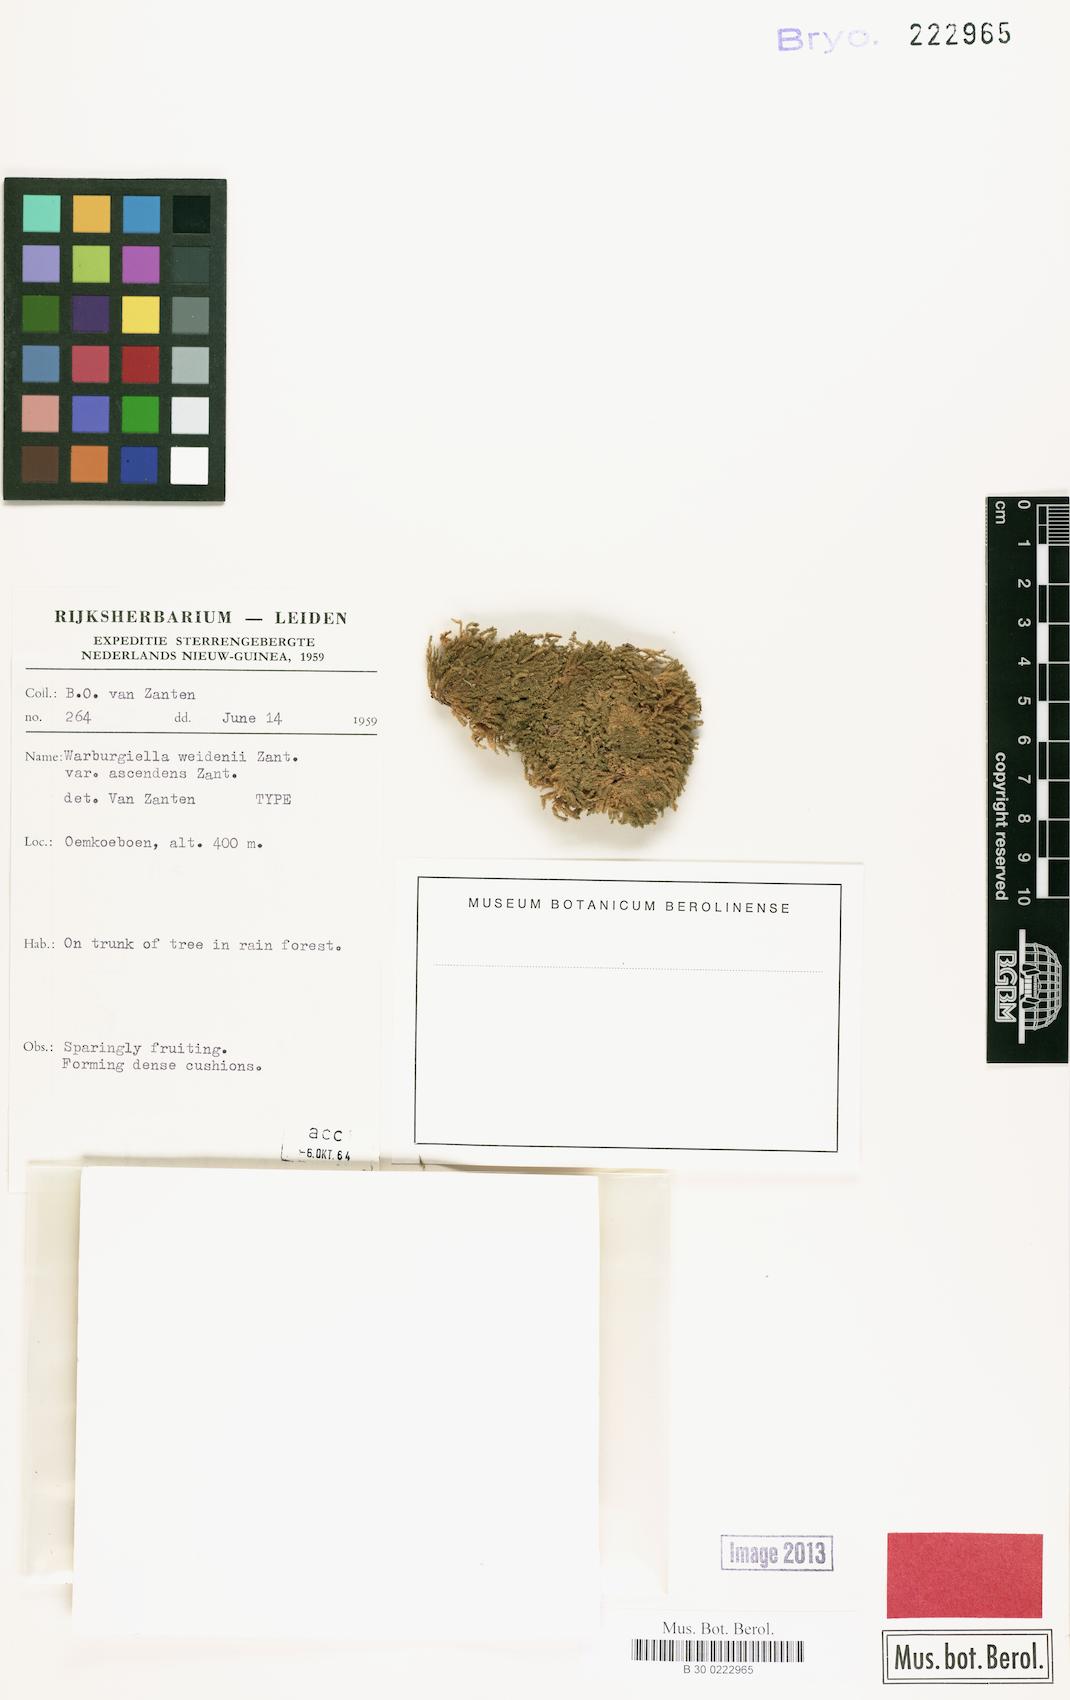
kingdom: Plantae
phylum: Bryophyta
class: Bryopsida
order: Hypnales
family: Sematophyllaceae
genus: Radulina
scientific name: Radulina weidenii
